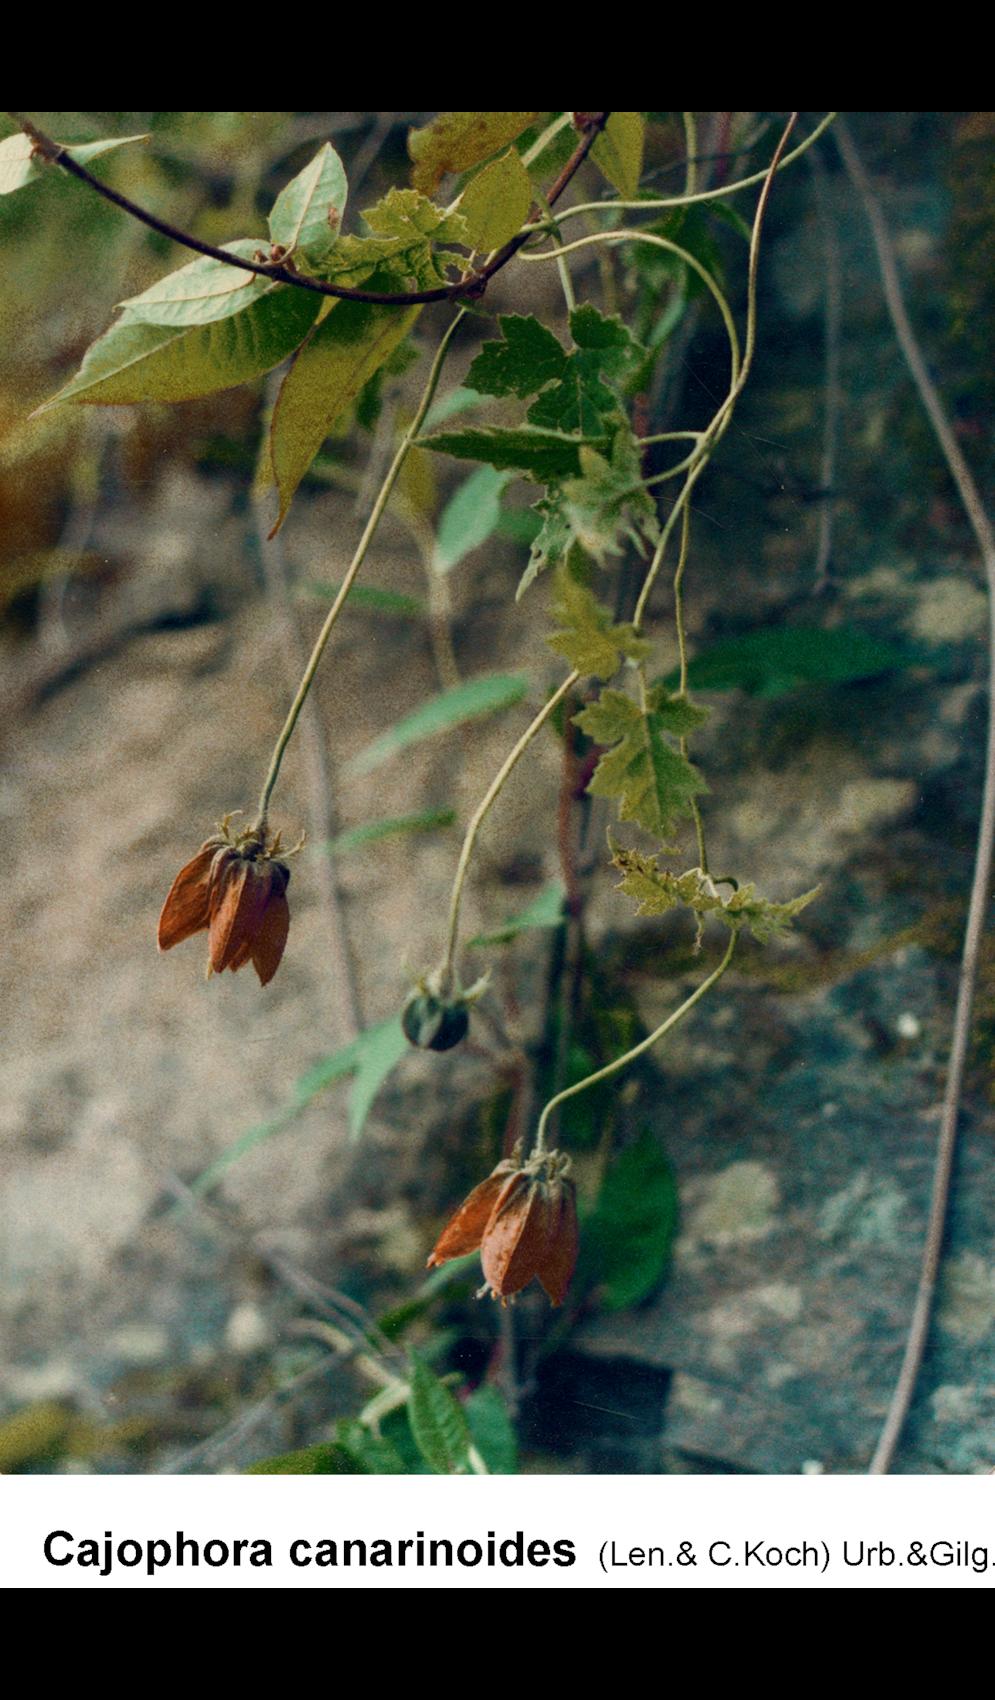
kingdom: Plantae
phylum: Tracheophyta
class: Magnoliopsida
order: Cornales
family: Loasaceae
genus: Caiophora
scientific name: Caiophora canarinoides
